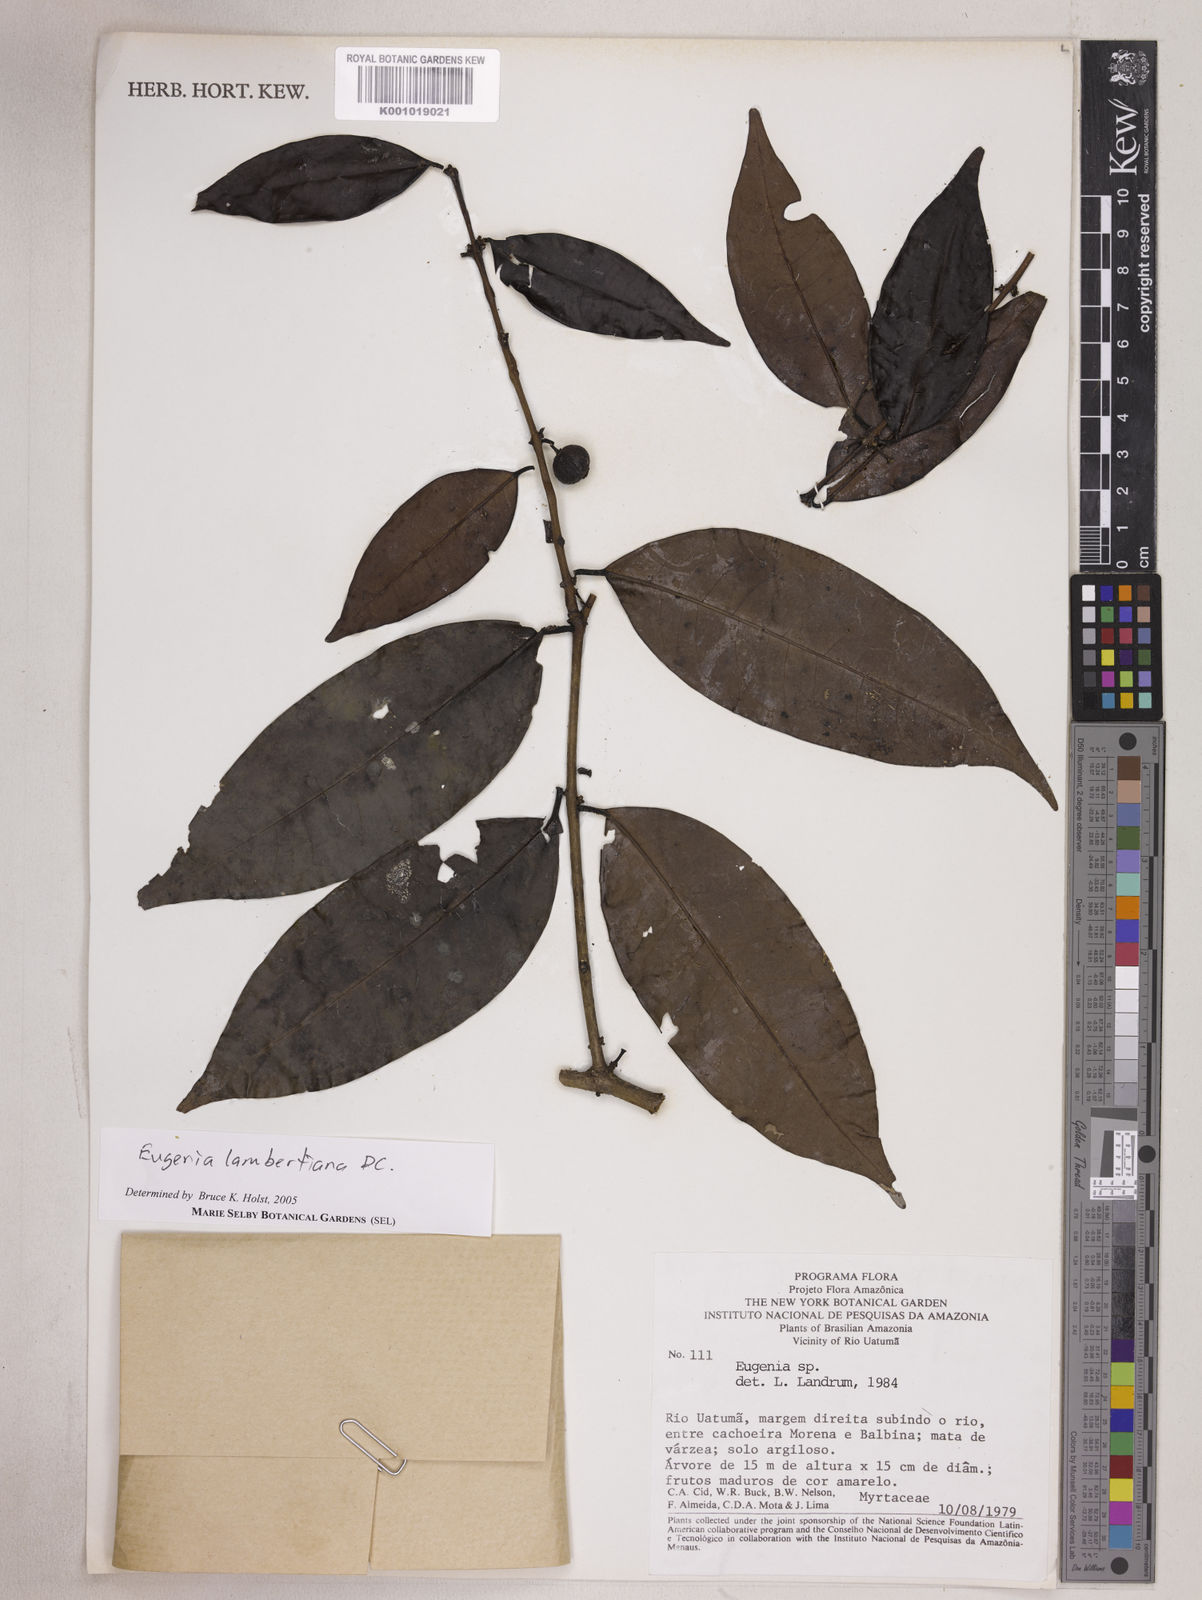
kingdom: Plantae
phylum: Tracheophyta
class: Magnoliopsida
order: Myrtales
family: Myrtaceae
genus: Eugenia
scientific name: Eugenia lambertiana
